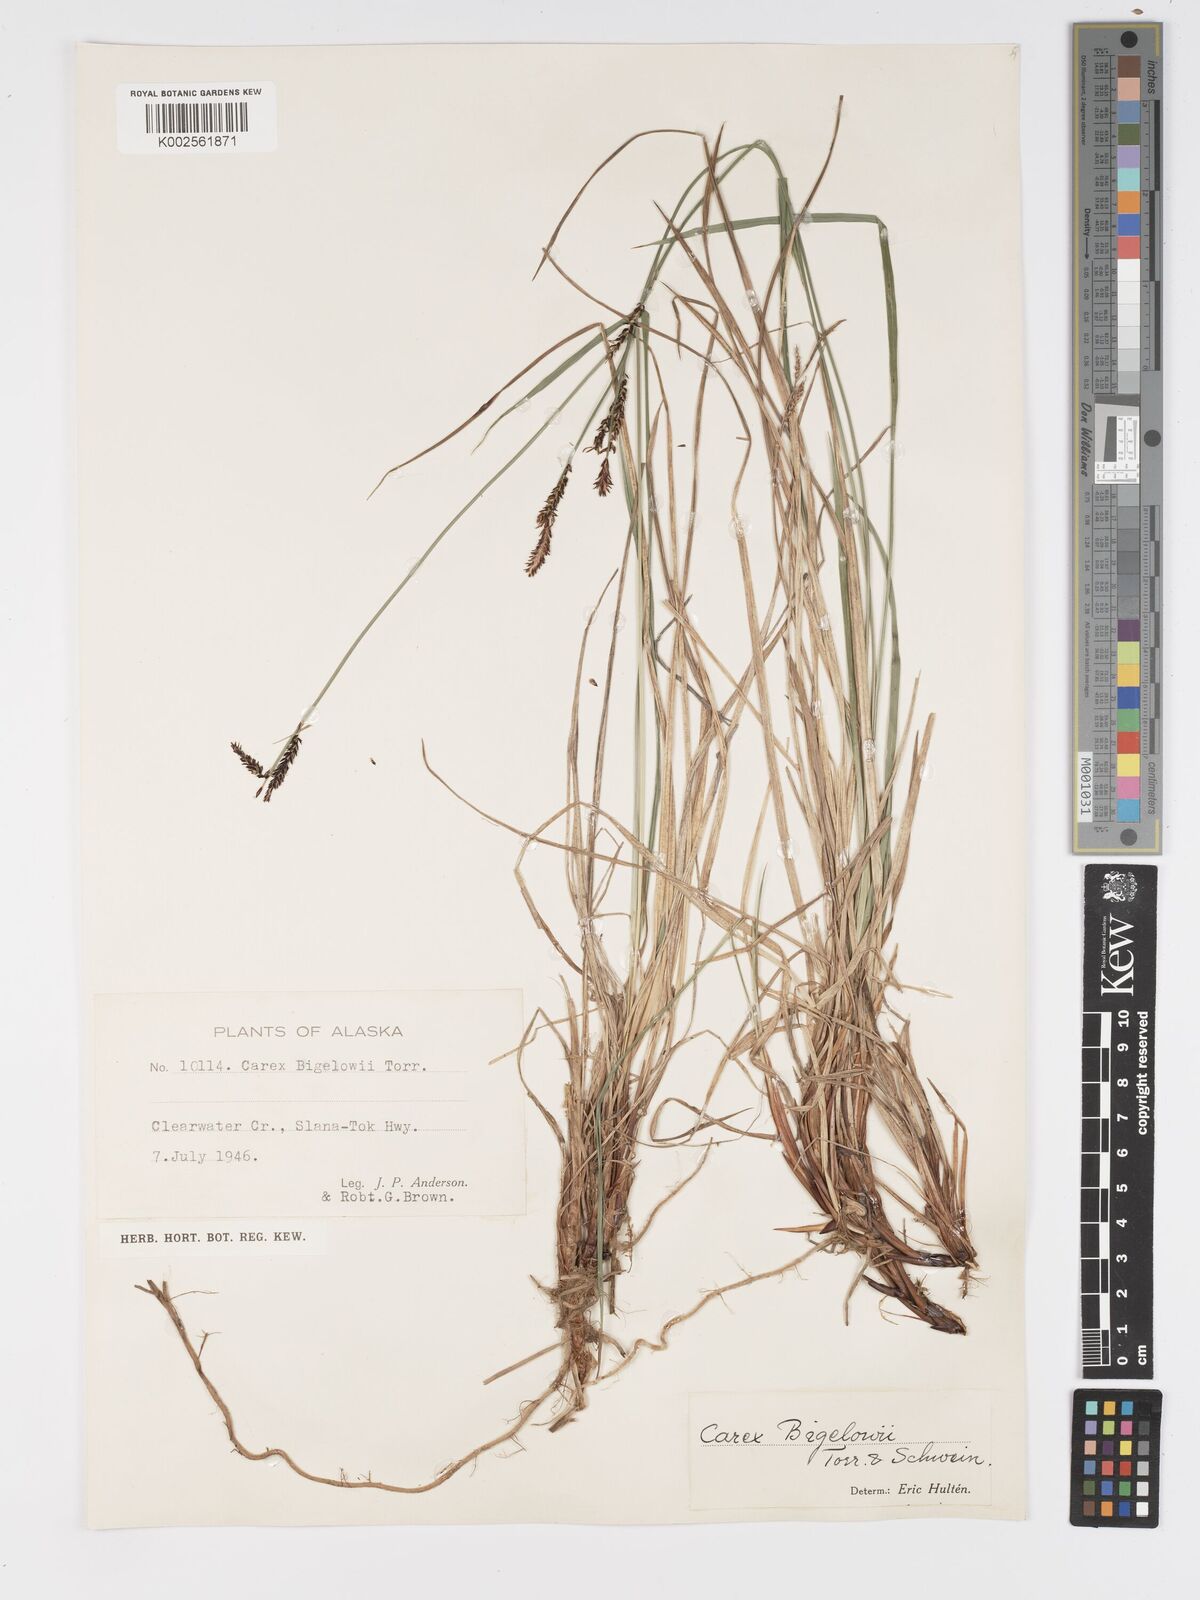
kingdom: Plantae
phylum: Tracheophyta
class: Liliopsida
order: Poales
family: Cyperaceae
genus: Carex
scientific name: Carex bigelowii
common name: Stiff sedge
